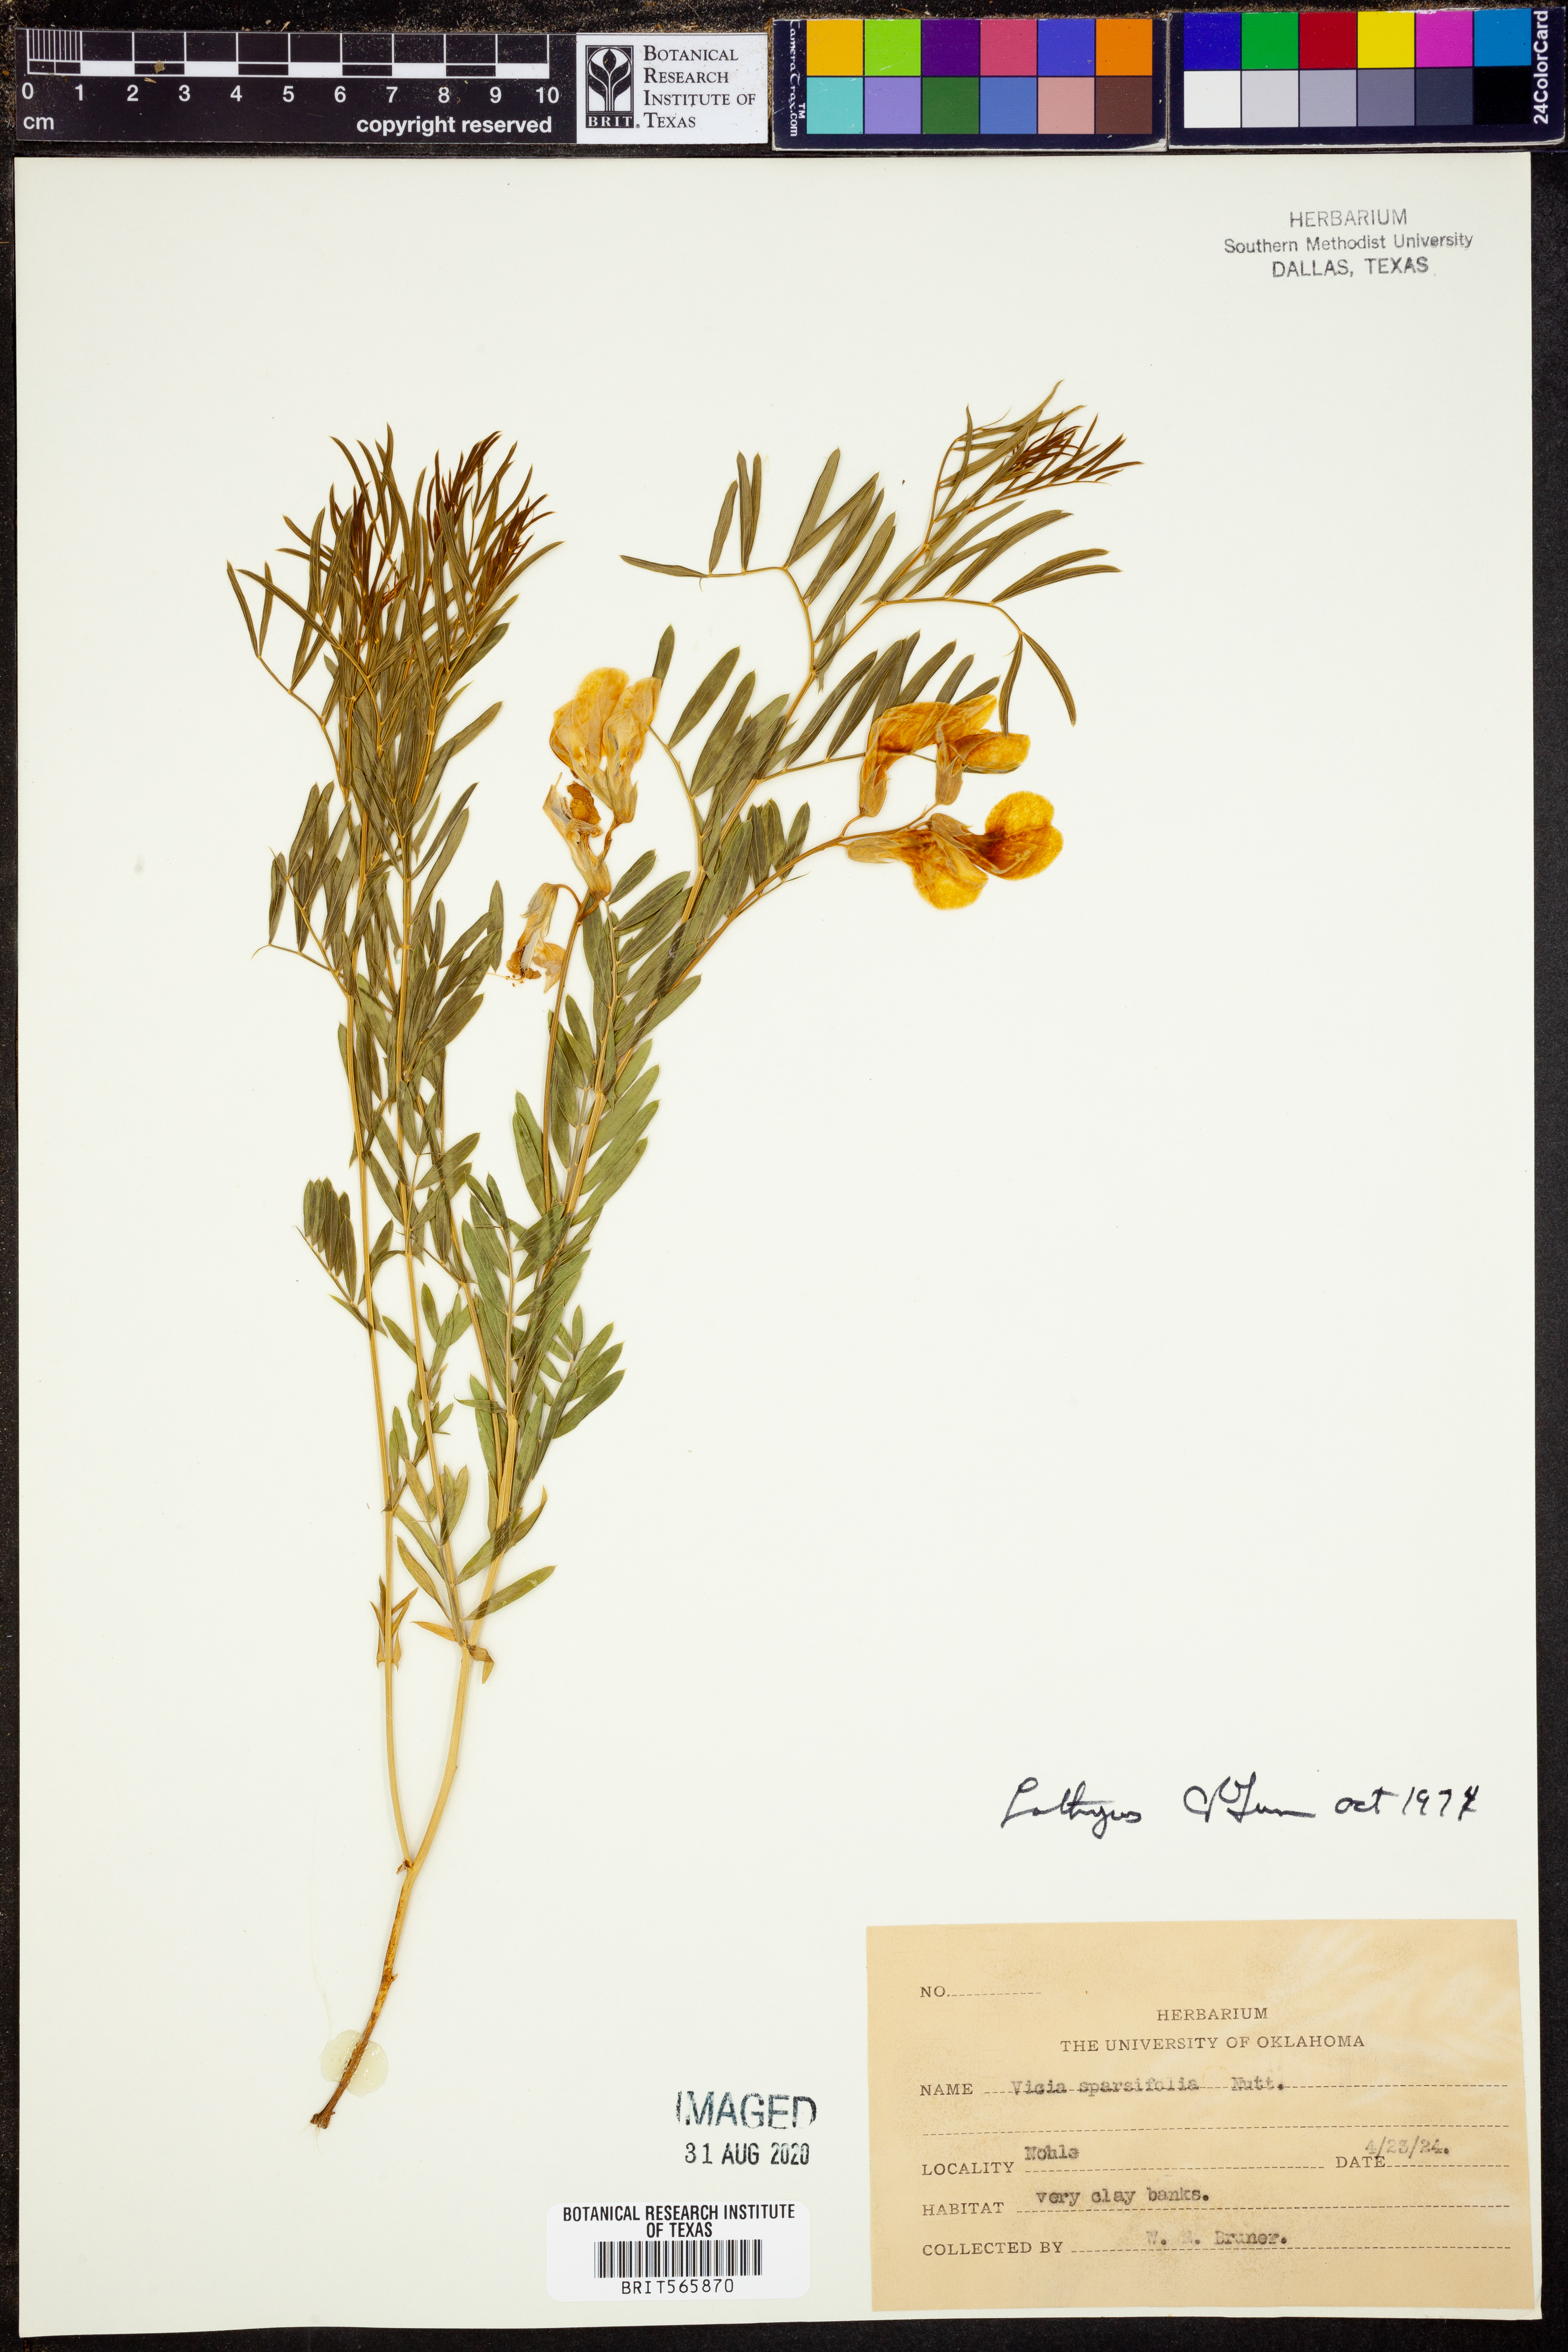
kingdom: Plantae
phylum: Tracheophyta
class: Magnoliopsida
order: Fabales
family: Fabaceae
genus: Lathyrus
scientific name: Lathyrus
